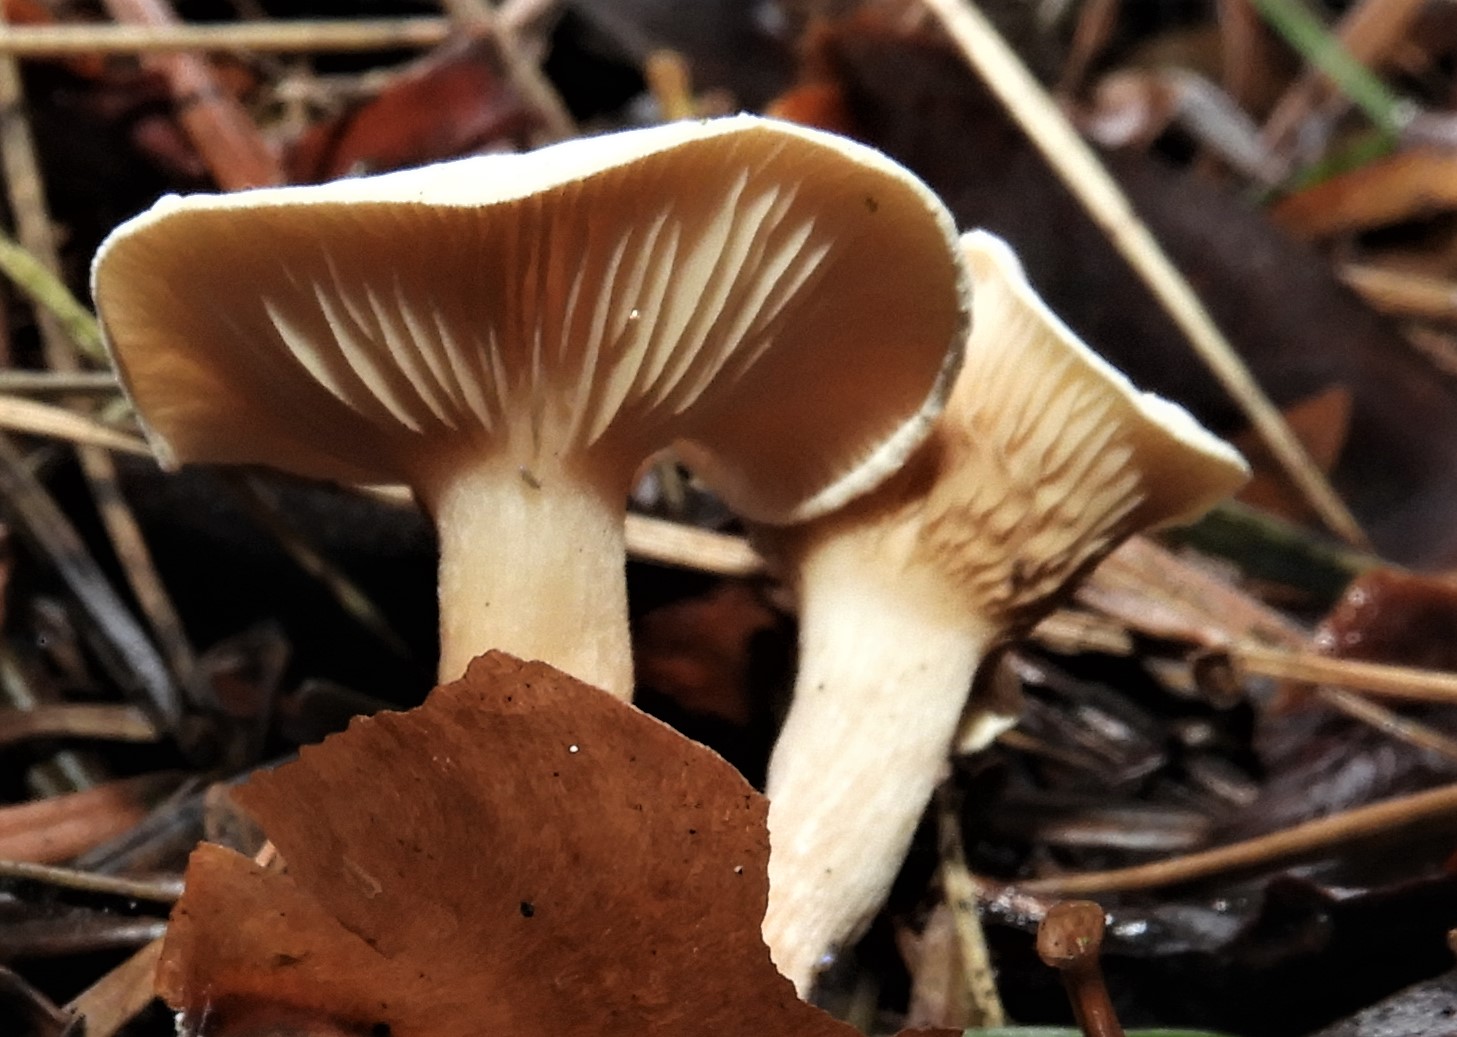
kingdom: Fungi
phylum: Basidiomycota
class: Agaricomycetes
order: Agaricales
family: Tricholomataceae
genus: Ripartites
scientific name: Ripartites tricholoma
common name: almindelig skæghat
